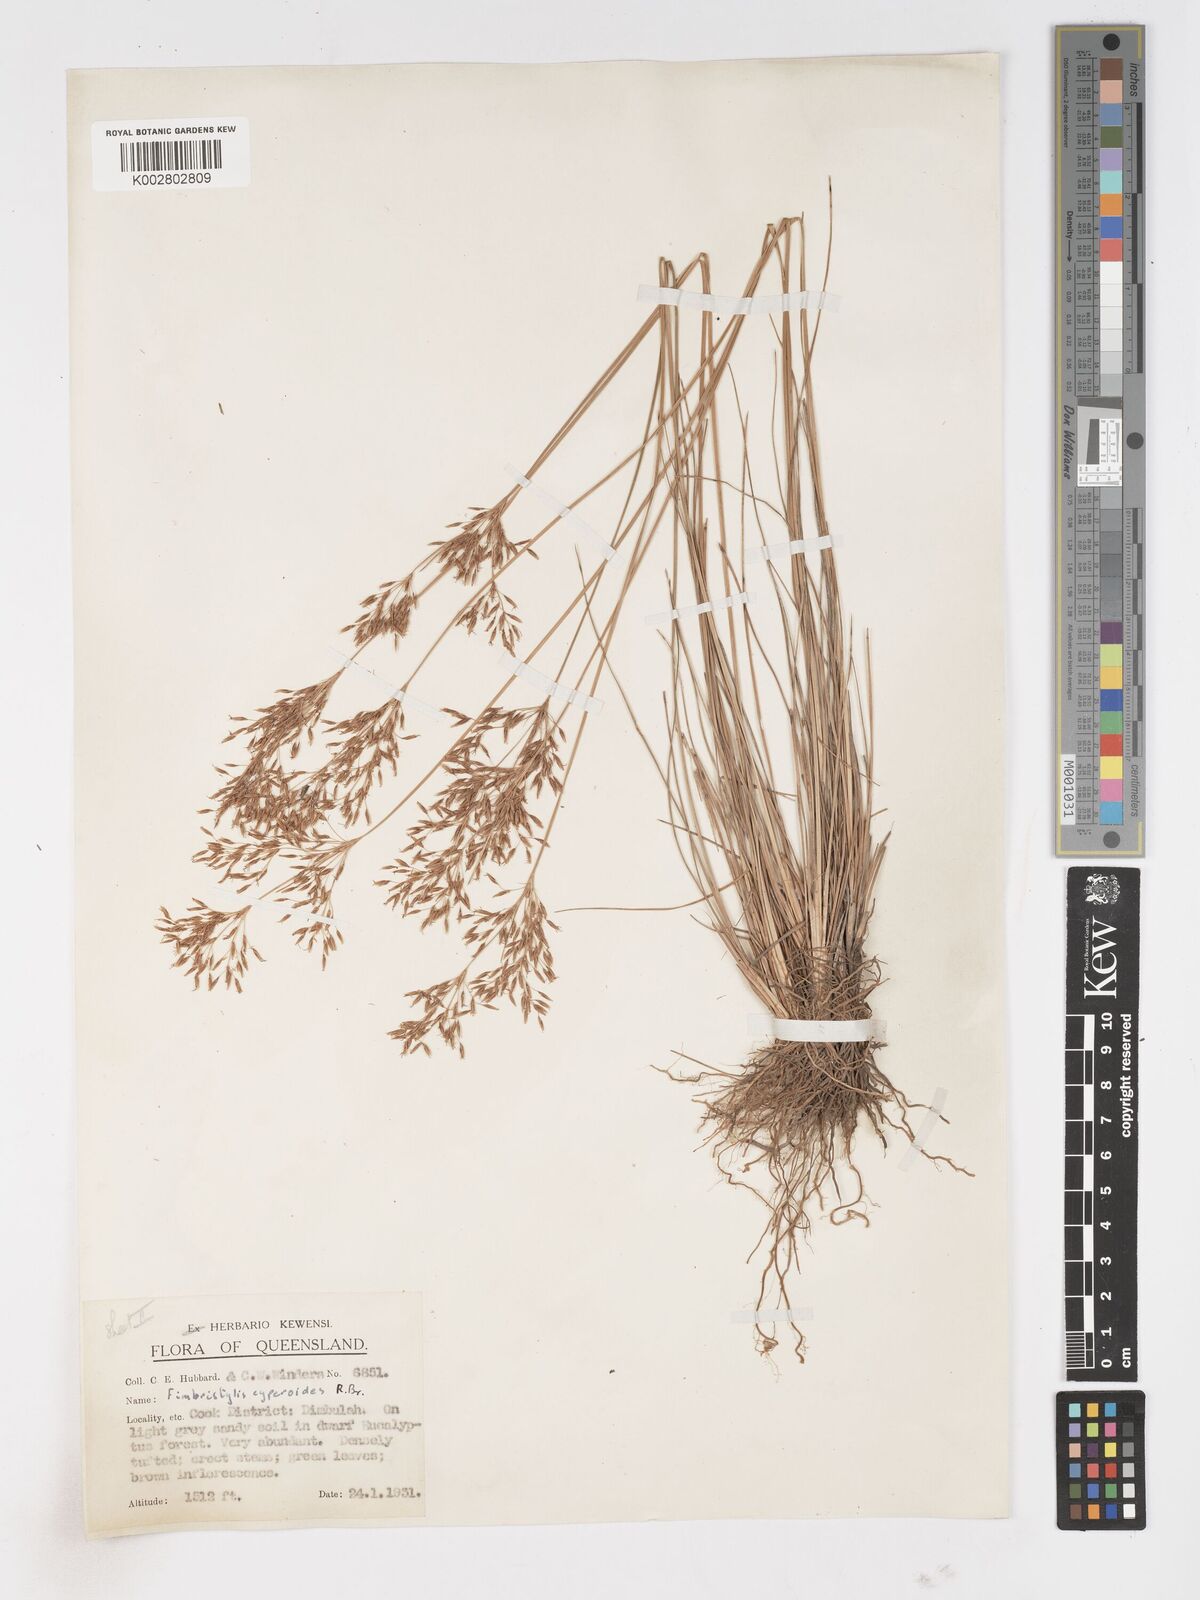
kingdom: Plantae
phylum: Tracheophyta
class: Liliopsida
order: Poales
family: Cyperaceae
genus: Fimbristylis
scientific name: Fimbristylis cinnamometorum
